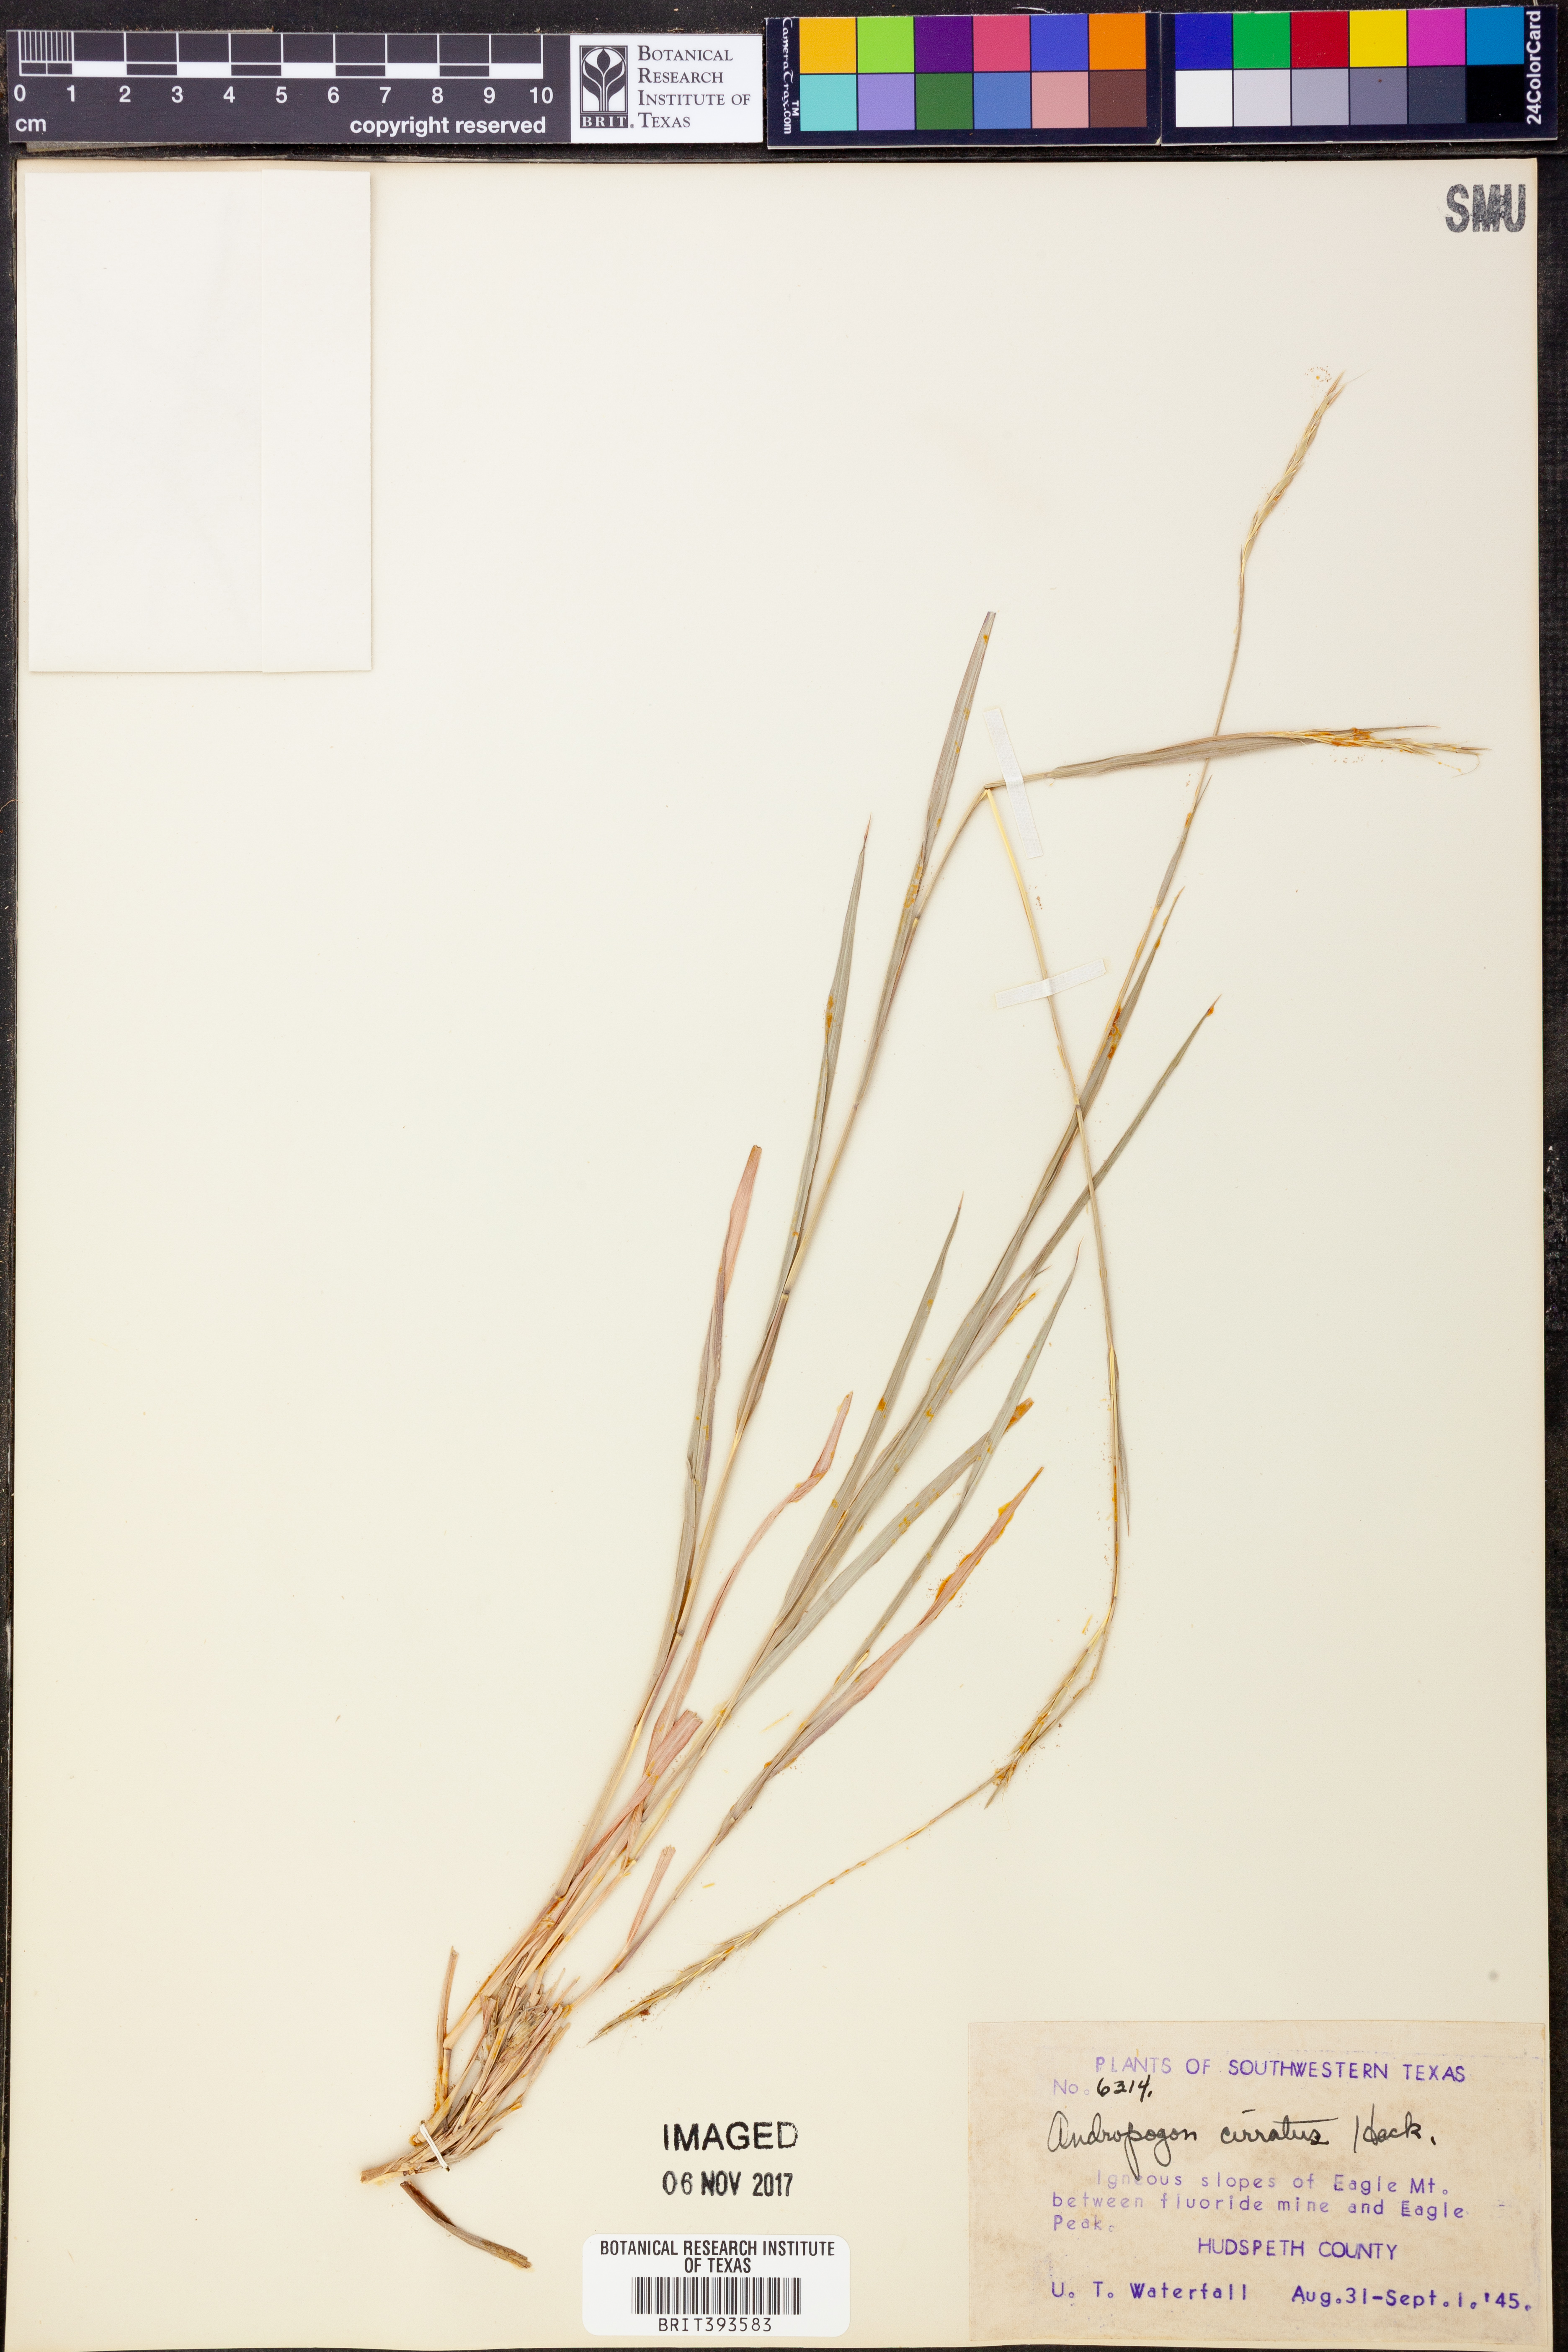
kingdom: Plantae
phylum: Tracheophyta
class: Liliopsida
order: Poales
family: Poaceae
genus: Andropogon
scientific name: Andropogon cirratus
